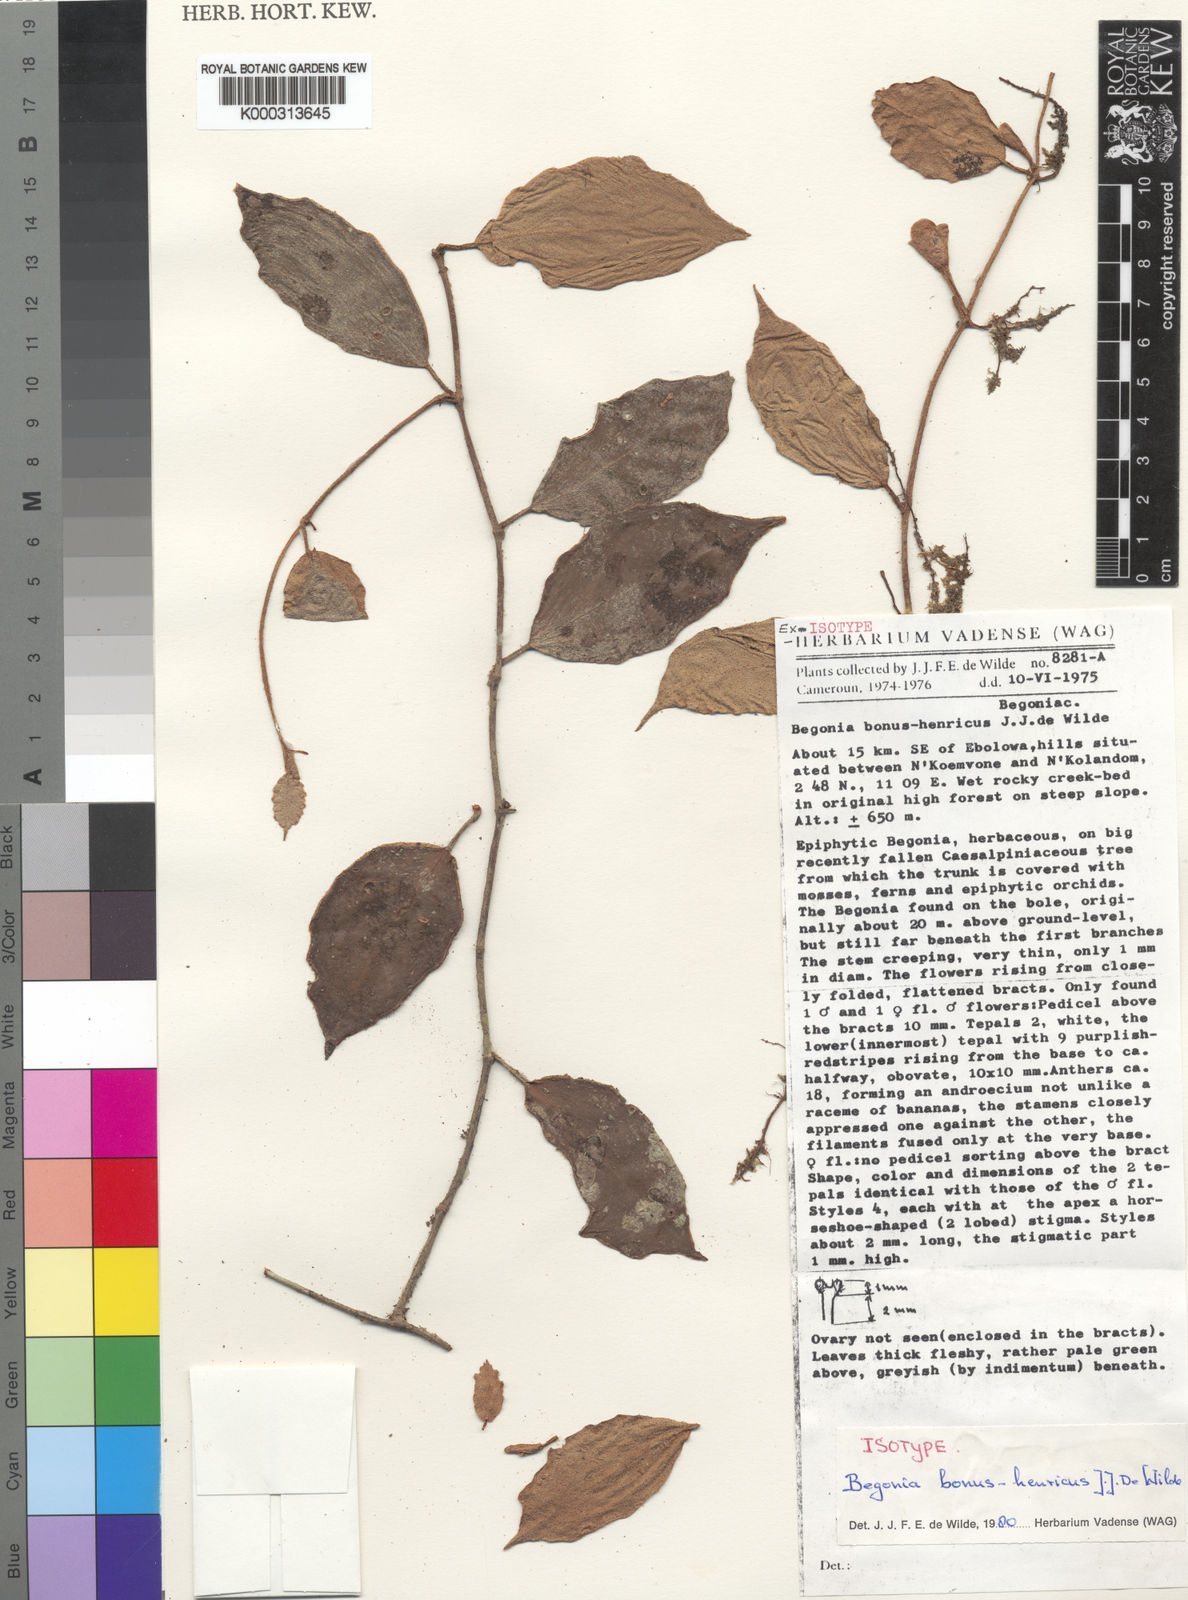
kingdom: Plantae
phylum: Tracheophyta
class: Magnoliopsida
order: Cucurbitales
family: Begoniaceae
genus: Begonia
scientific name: Begonia bonus-henricus
